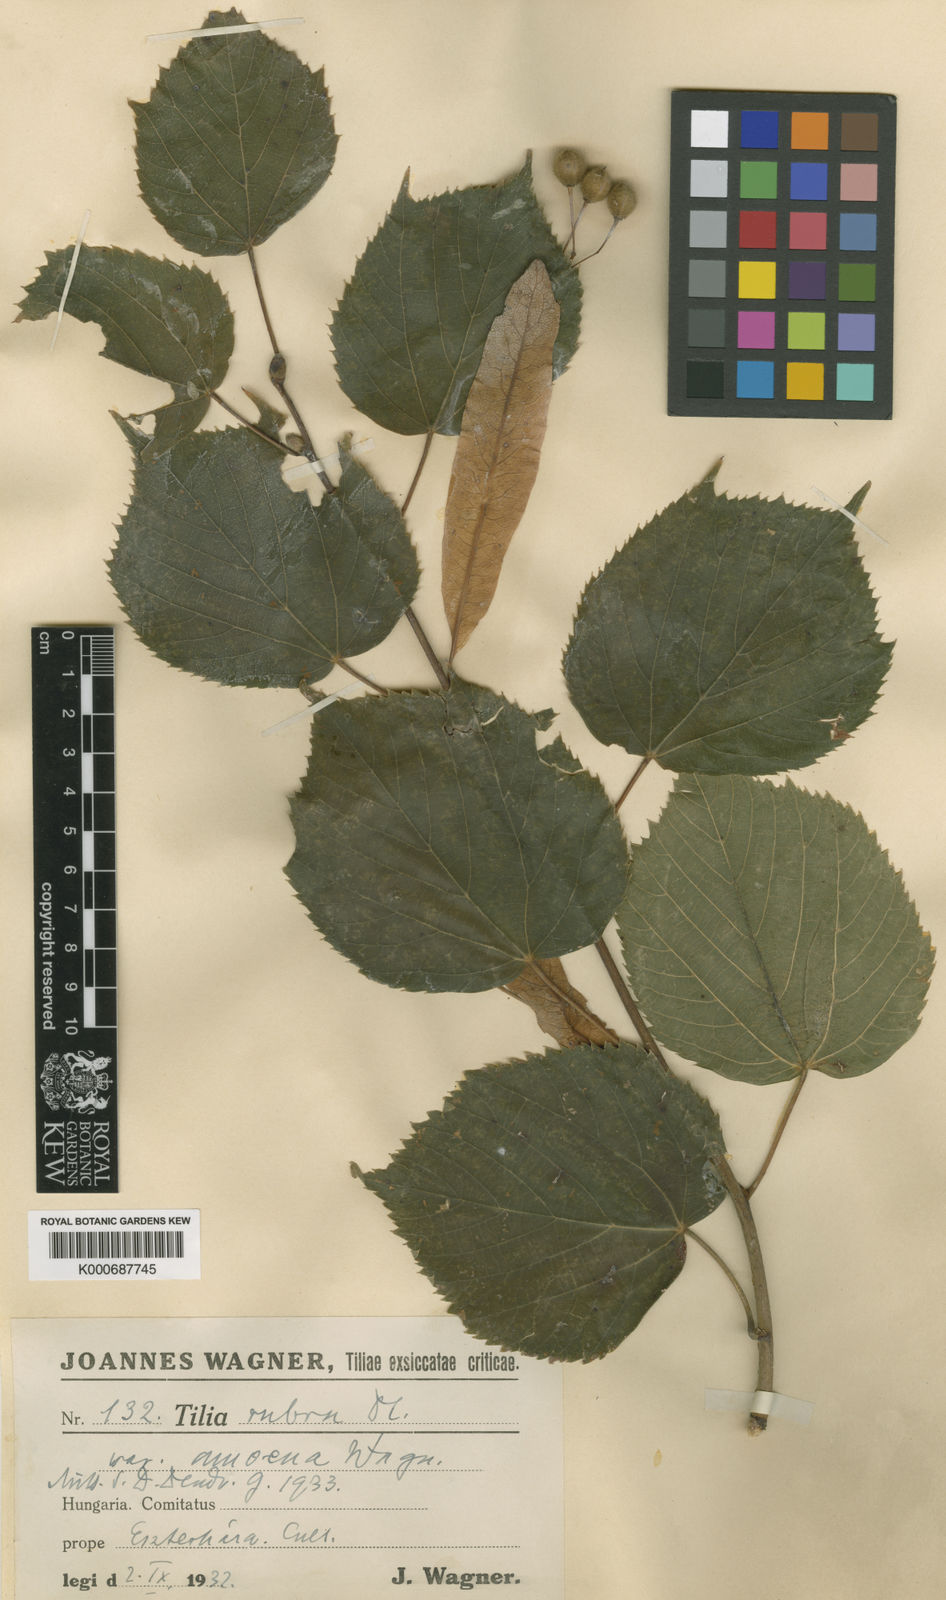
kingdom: Plantae
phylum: Tracheophyta
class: Magnoliopsida
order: Malvales
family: Malvaceae
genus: Tilia
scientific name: Tilia platyphyllos
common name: Large-leaved lime
